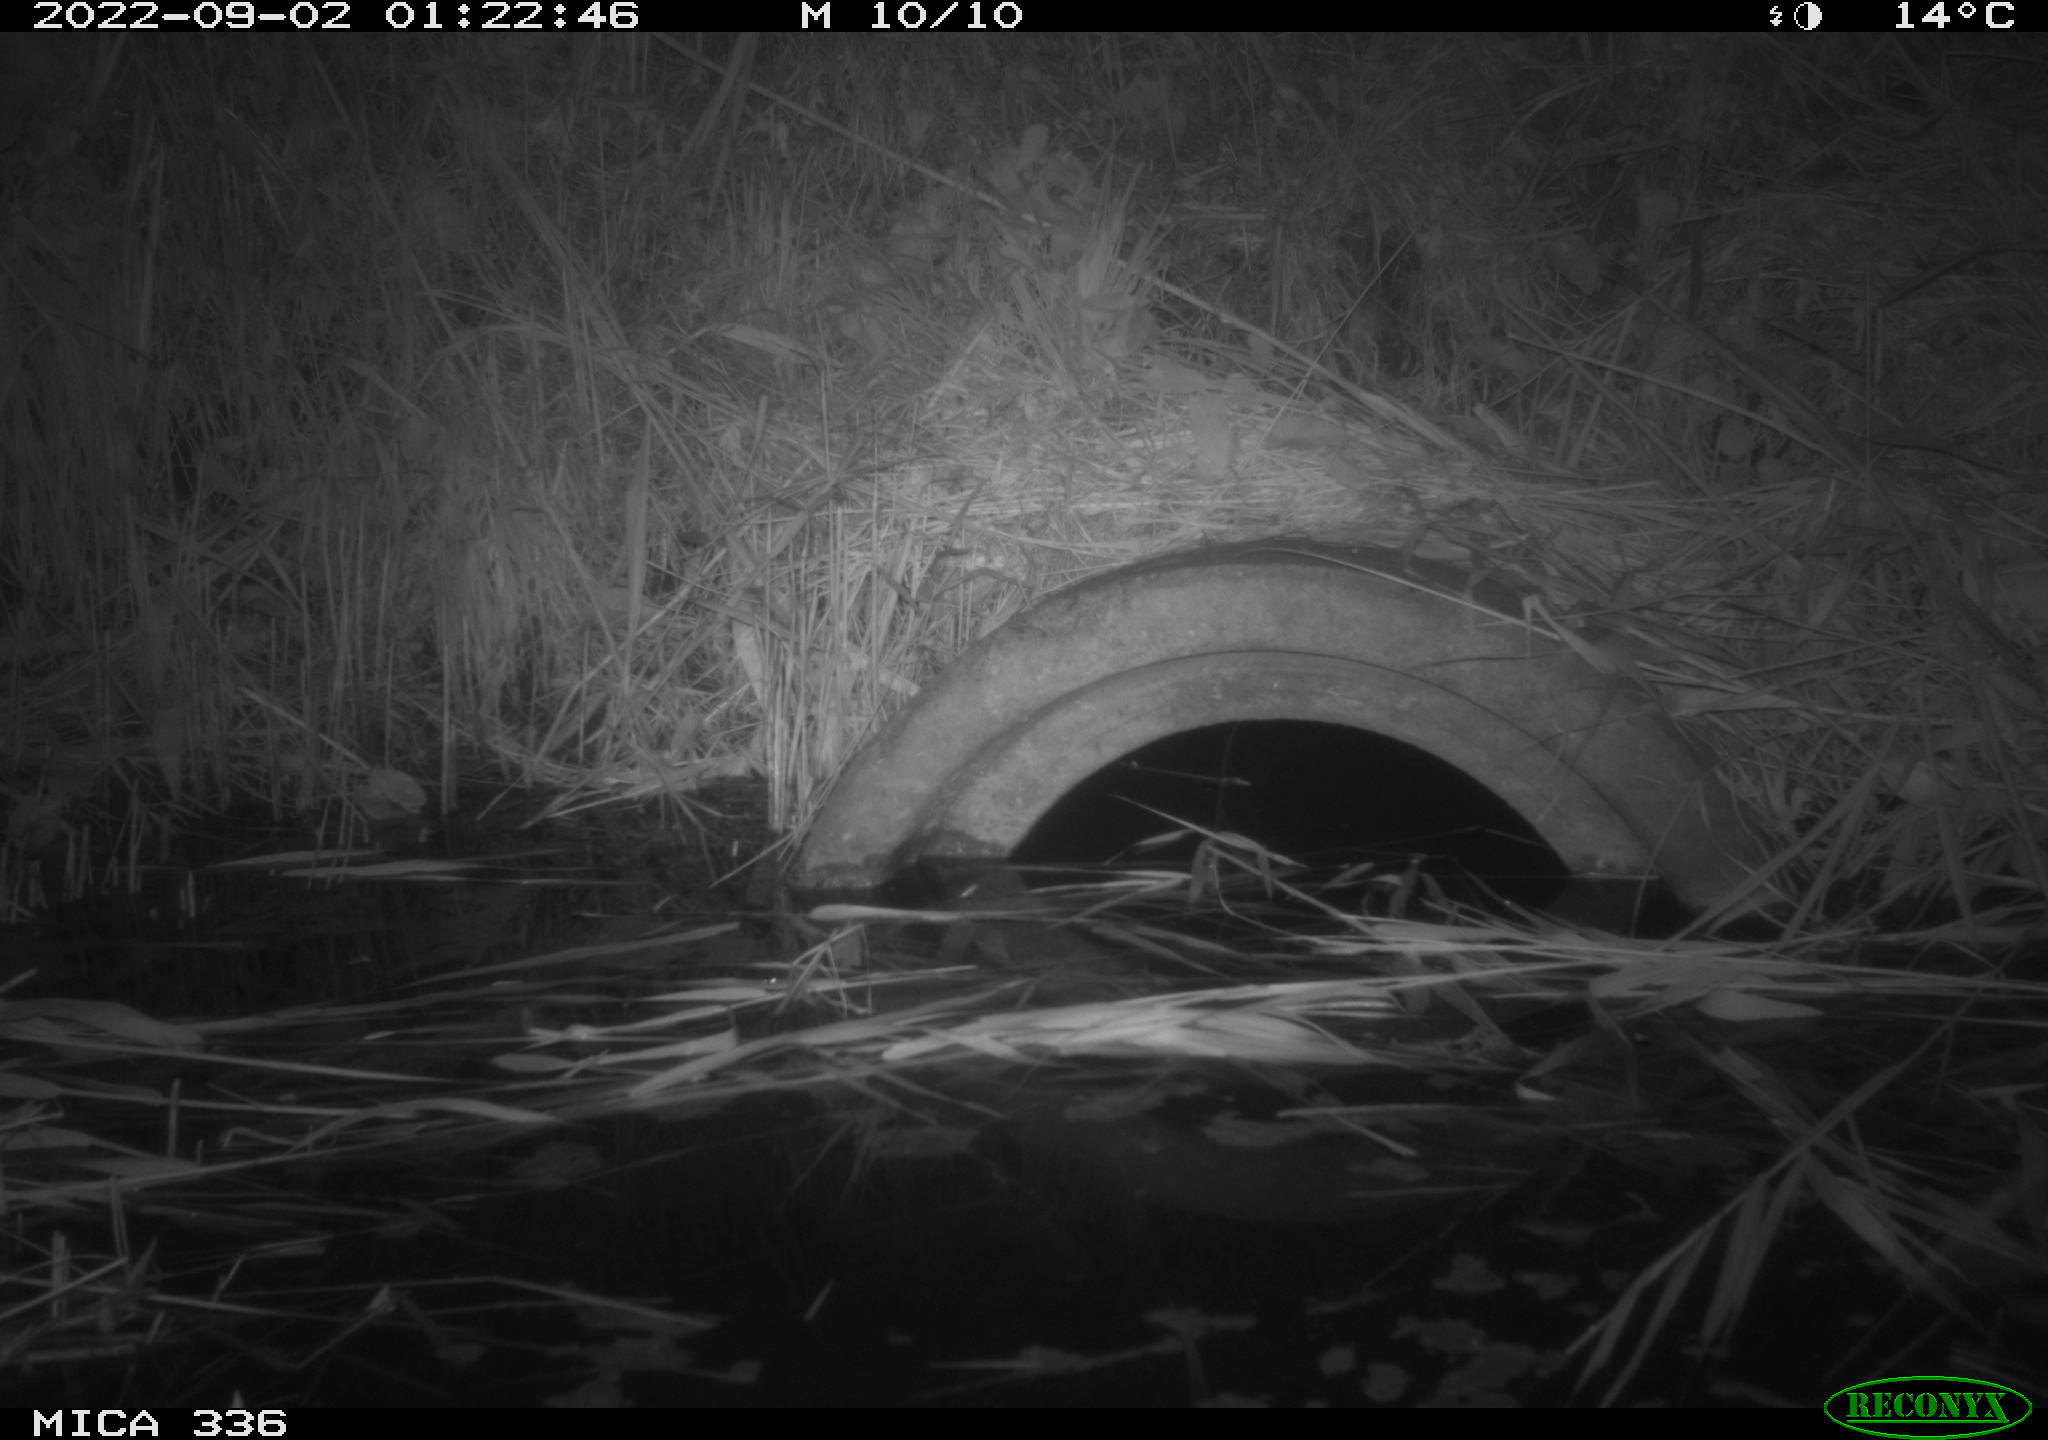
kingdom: Animalia
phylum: Chordata
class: Mammalia
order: Rodentia
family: Muridae
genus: Rattus
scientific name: Rattus norvegicus
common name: Brown rat
